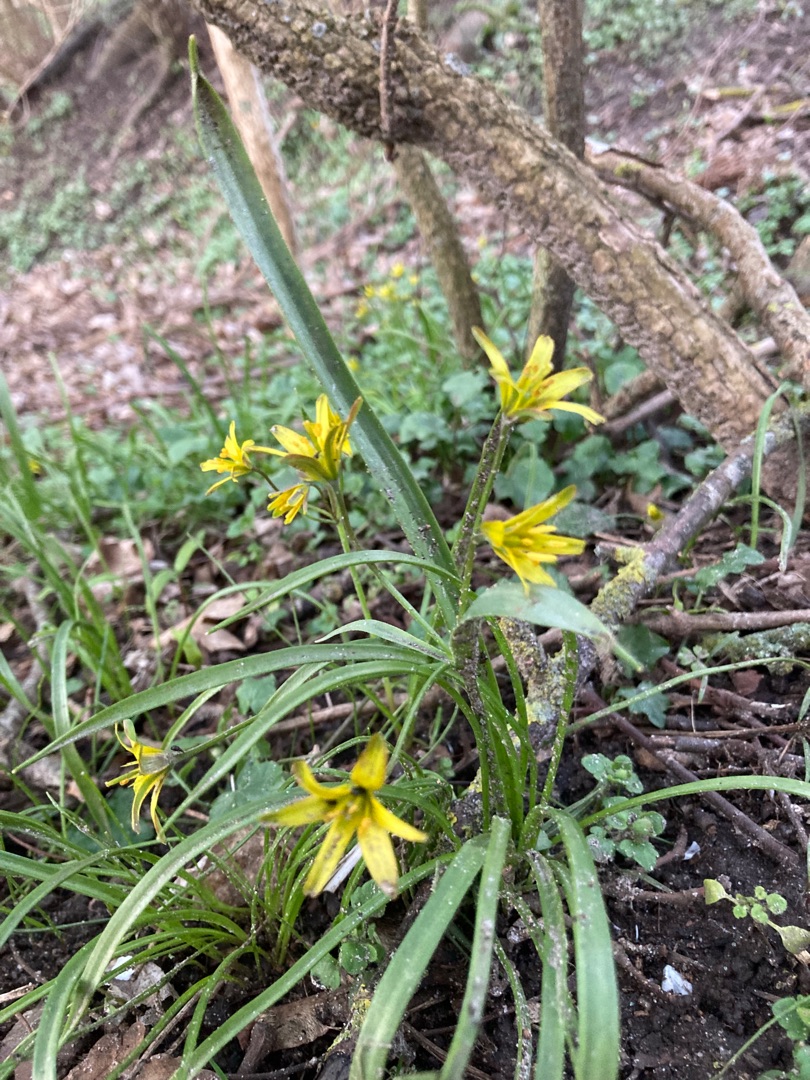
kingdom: Plantae
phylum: Tracheophyta
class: Liliopsida
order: Liliales
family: Liliaceae
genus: Gagea
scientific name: Gagea lutea
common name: Almindelig guldstjerne
